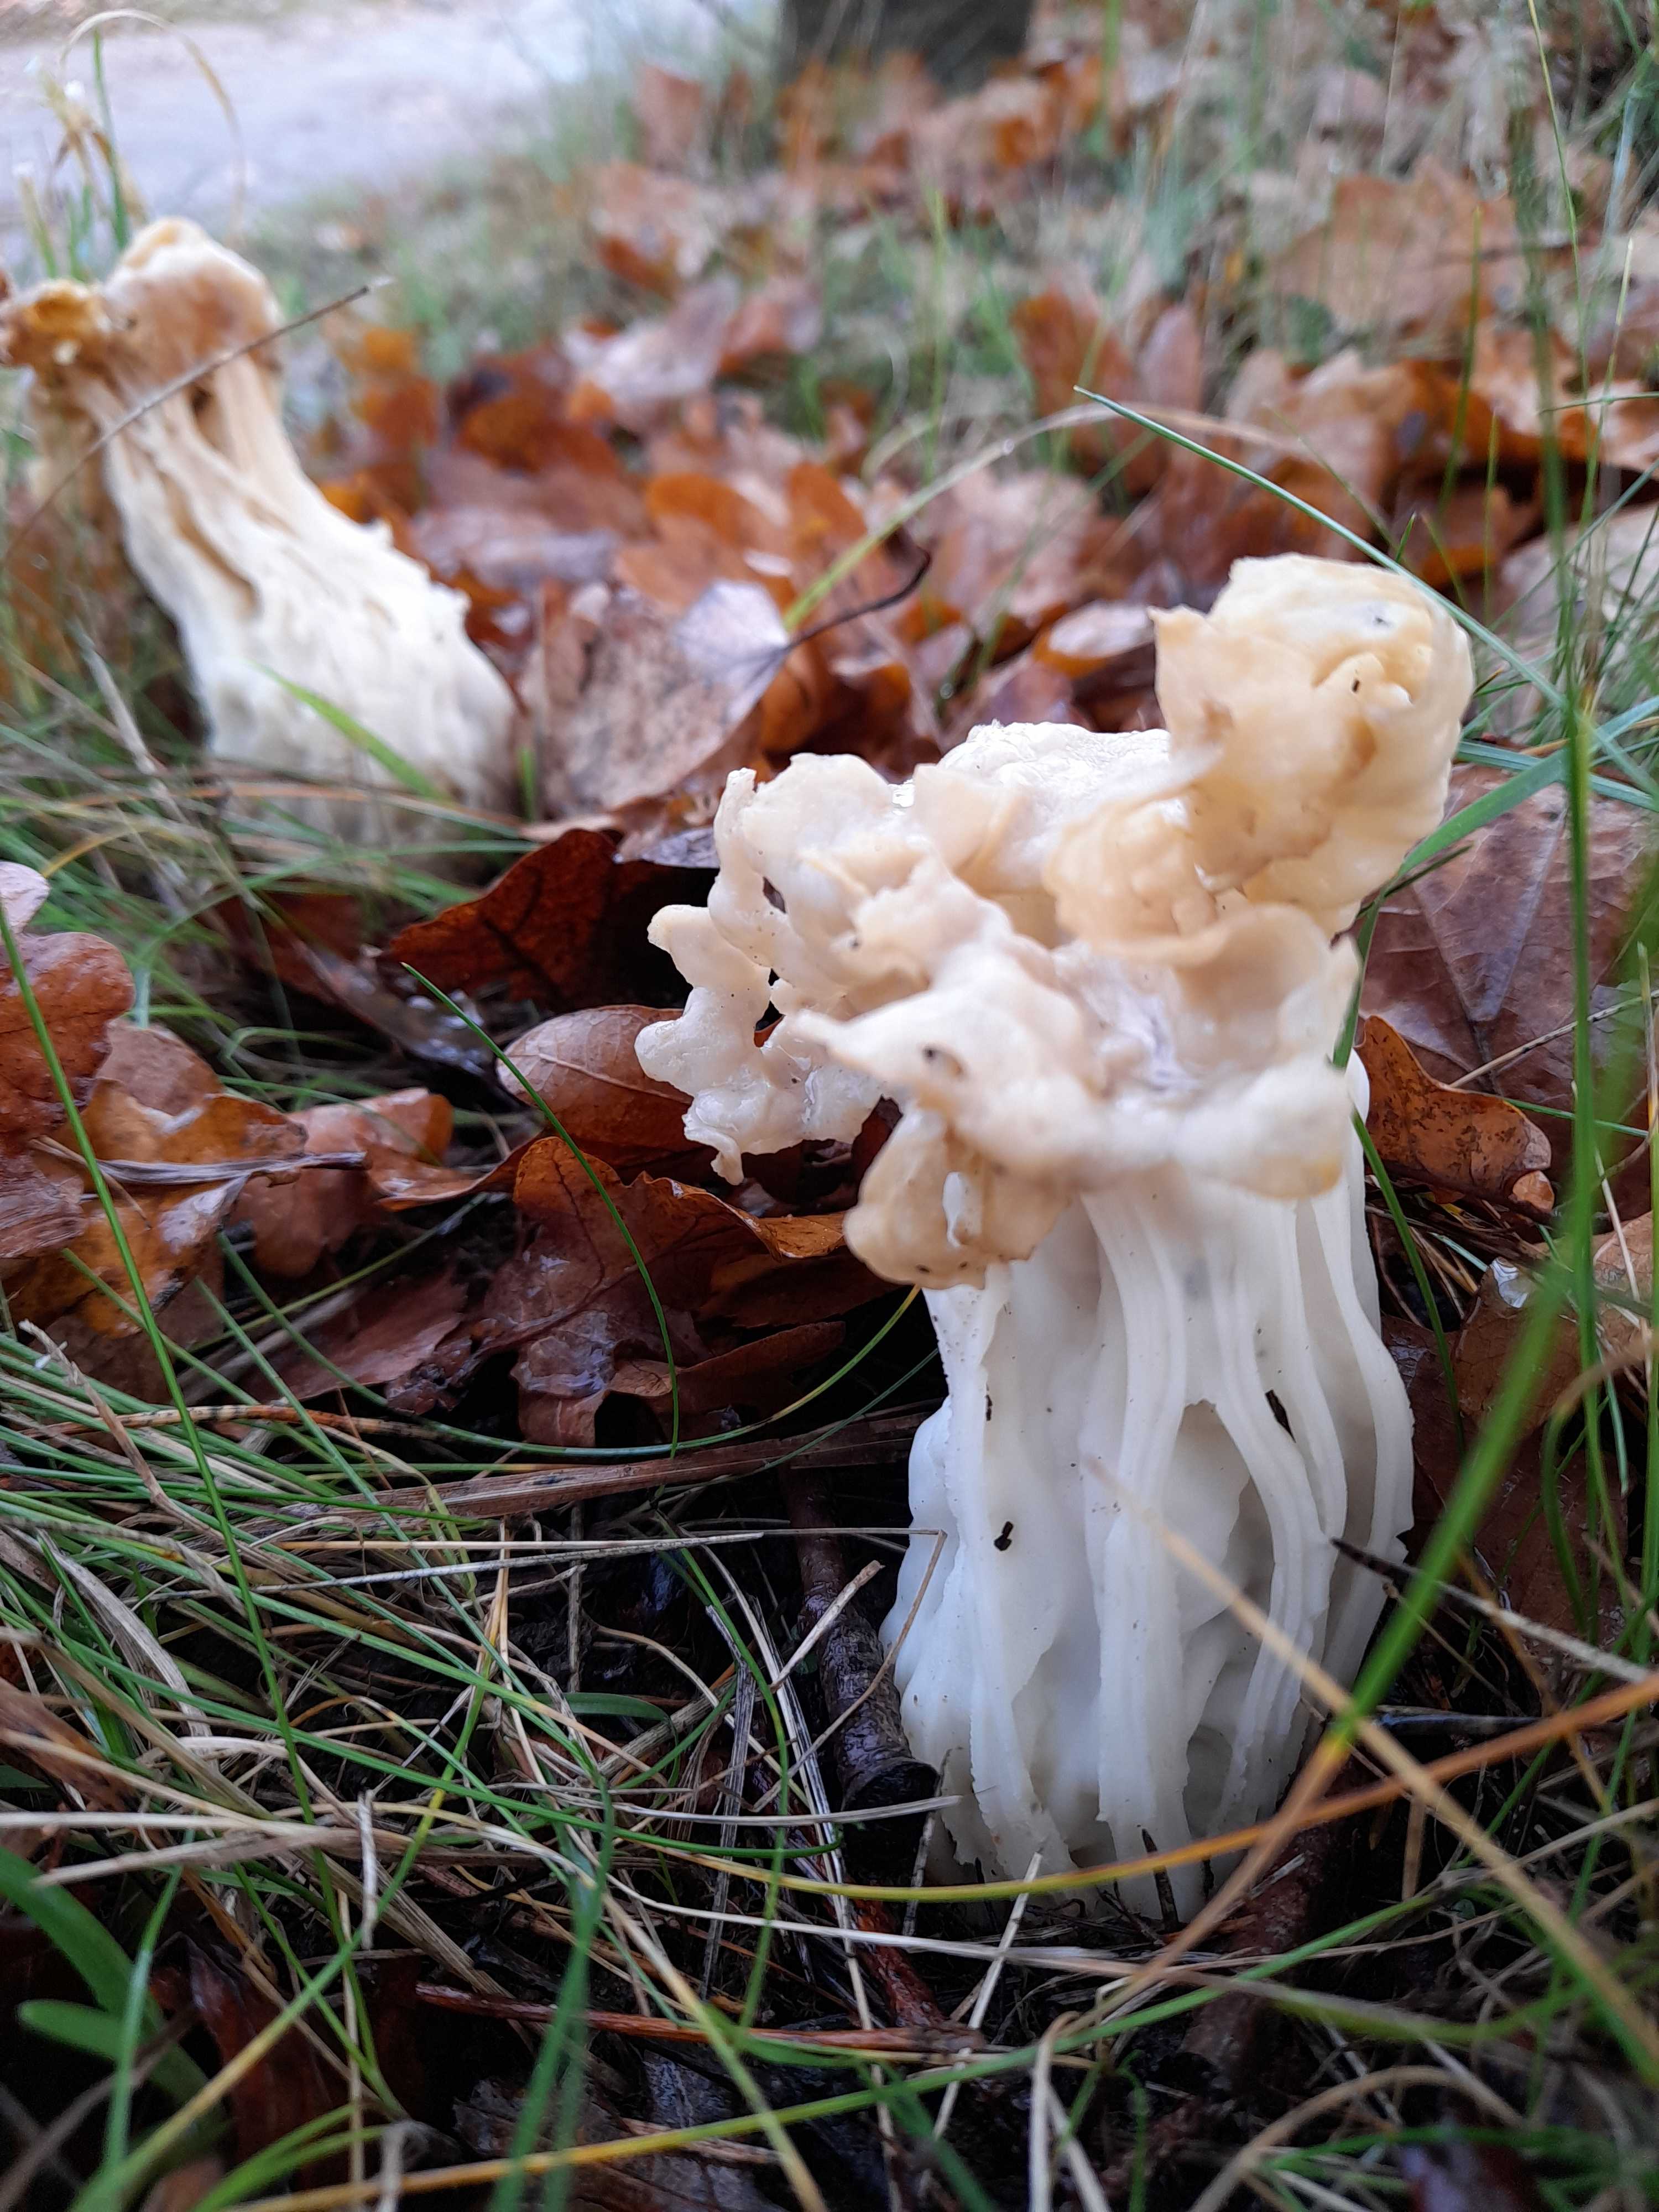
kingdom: Fungi
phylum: Ascomycota
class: Pezizomycetes
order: Pezizales
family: Helvellaceae
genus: Helvella
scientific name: Helvella crispa
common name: kruset foldhat
